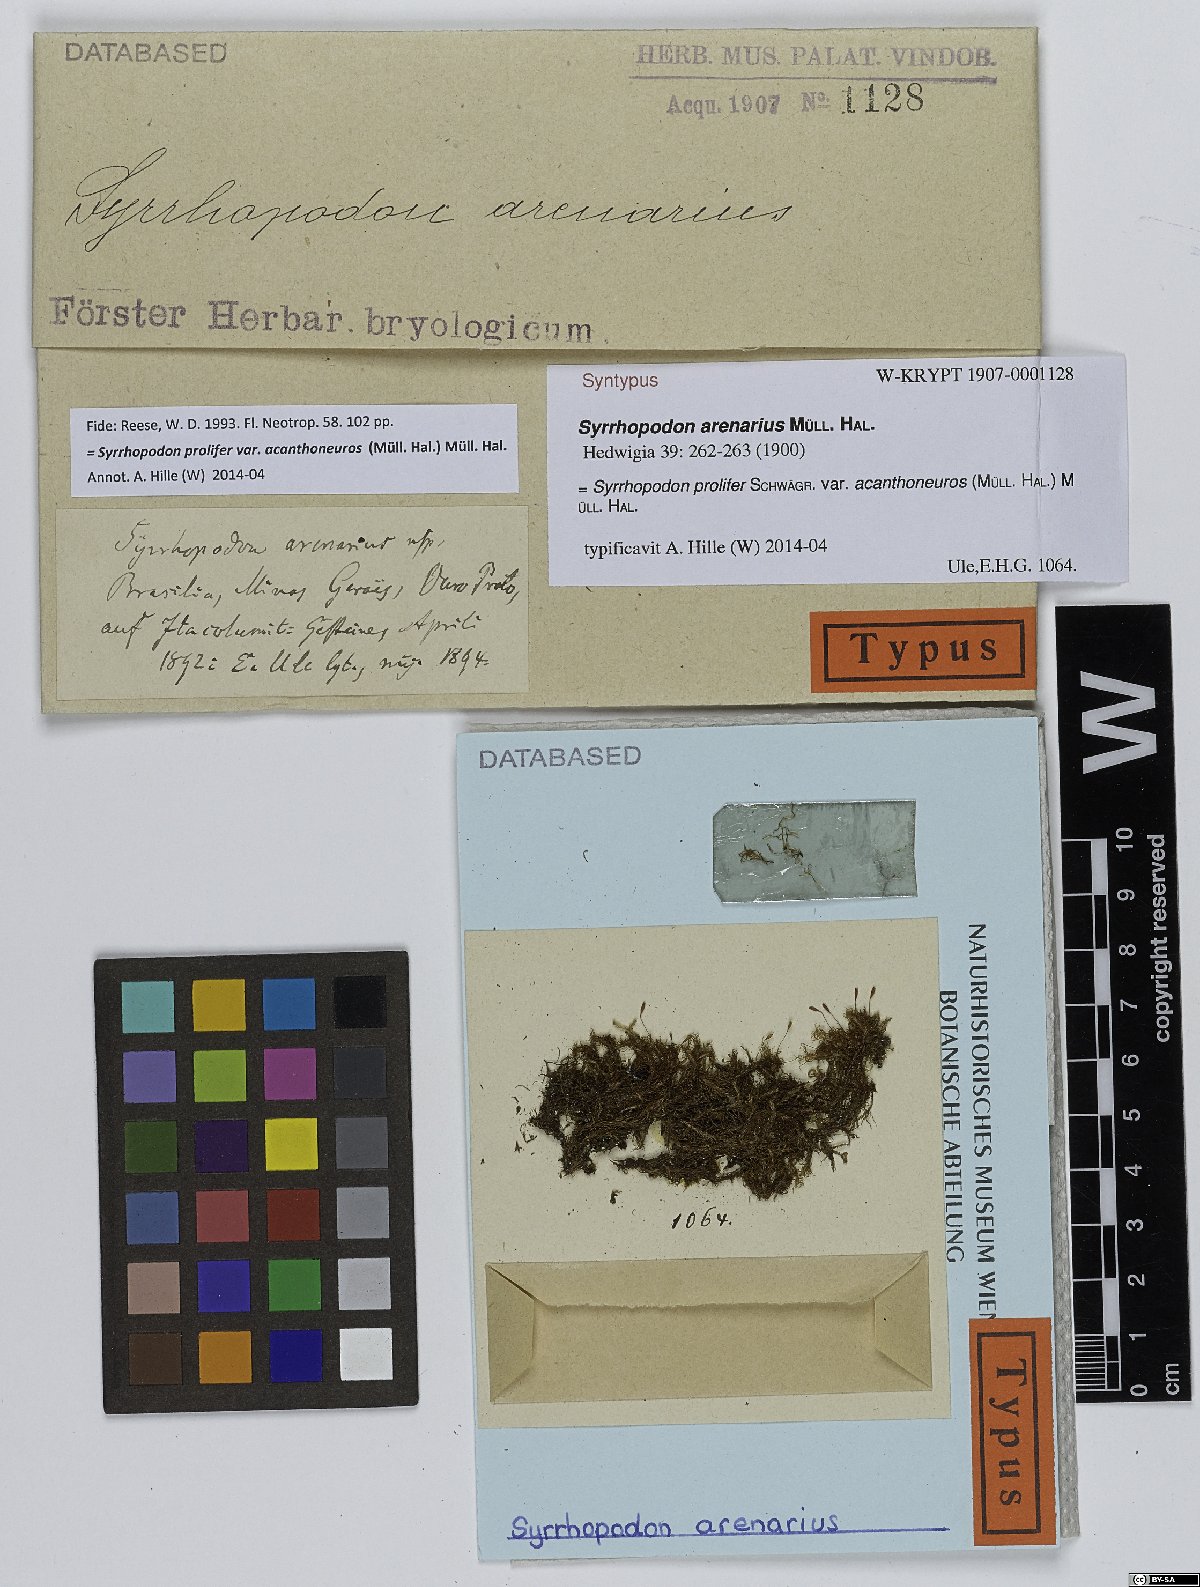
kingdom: Plantae
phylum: Bryophyta
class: Bryopsida
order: Dicranales
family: Calymperaceae
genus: Syrrhopodon
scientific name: Syrrhopodon prolifer
